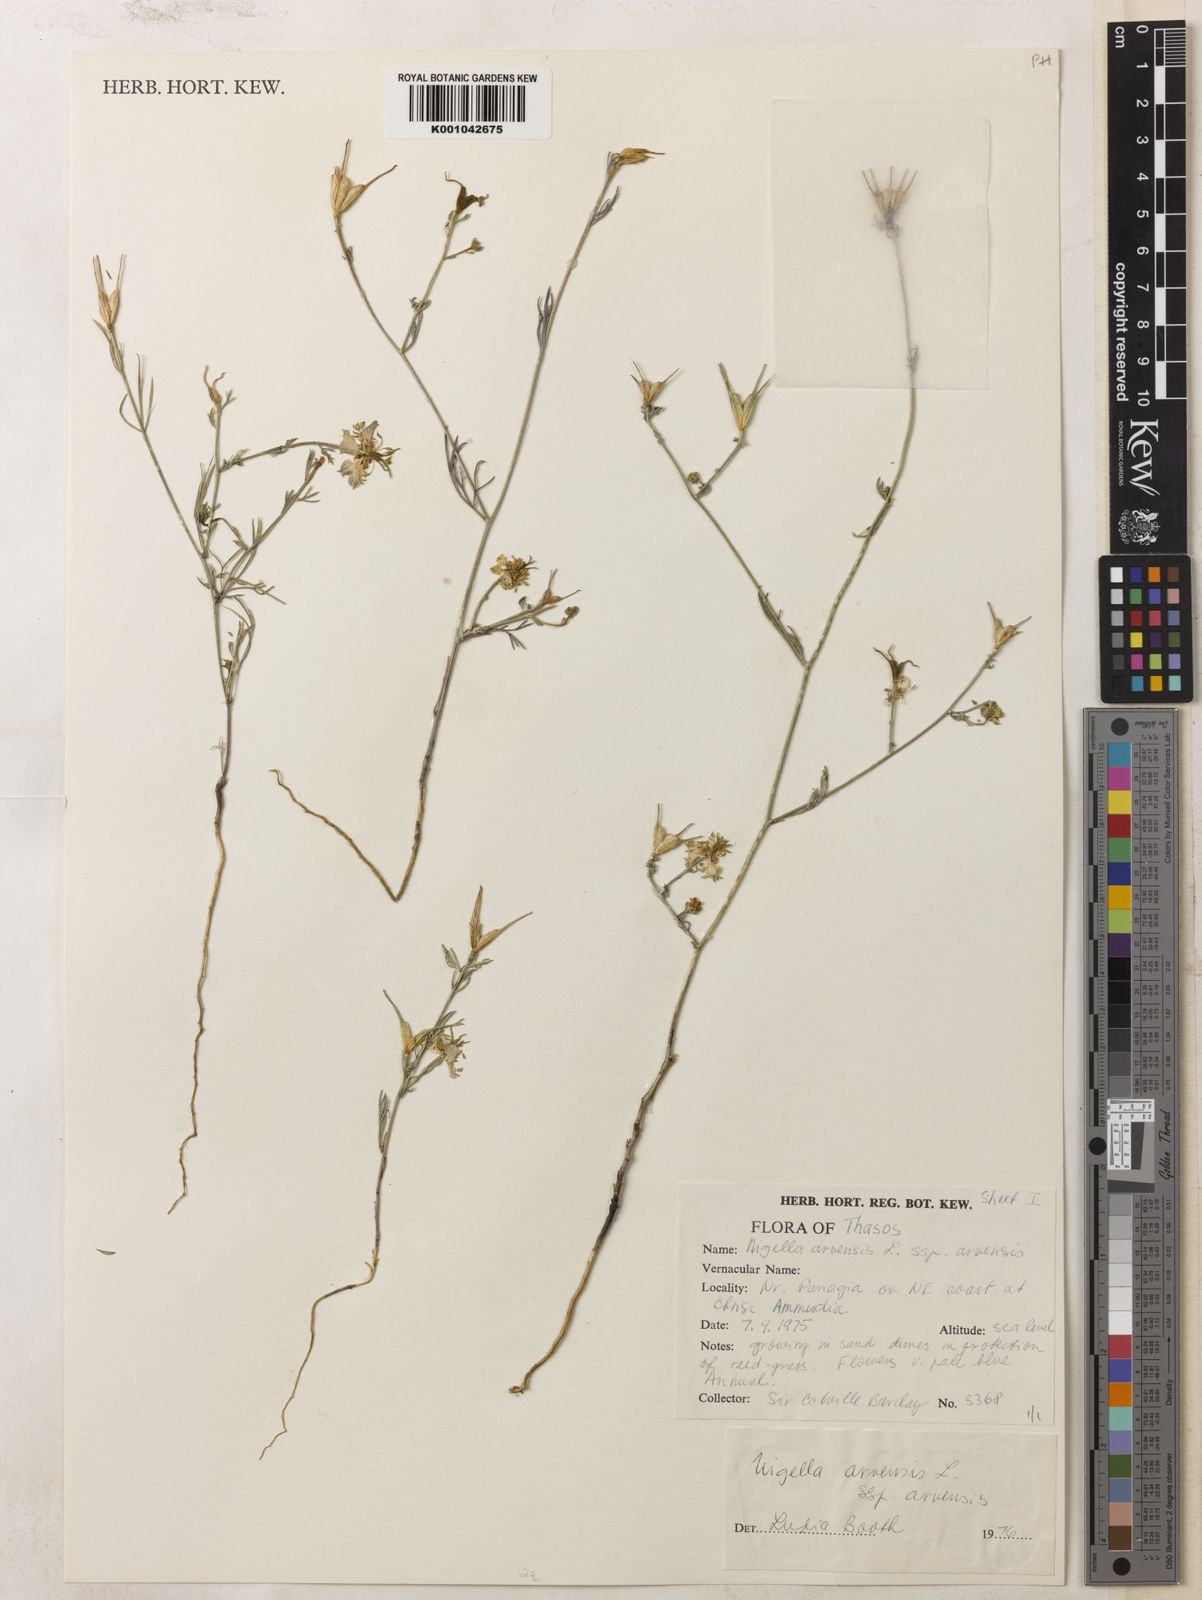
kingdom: Plantae
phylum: Tracheophyta
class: Magnoliopsida
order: Ranunculales
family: Ranunculaceae
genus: Nigella
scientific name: Nigella arvensis
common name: Wild fennel-flower
